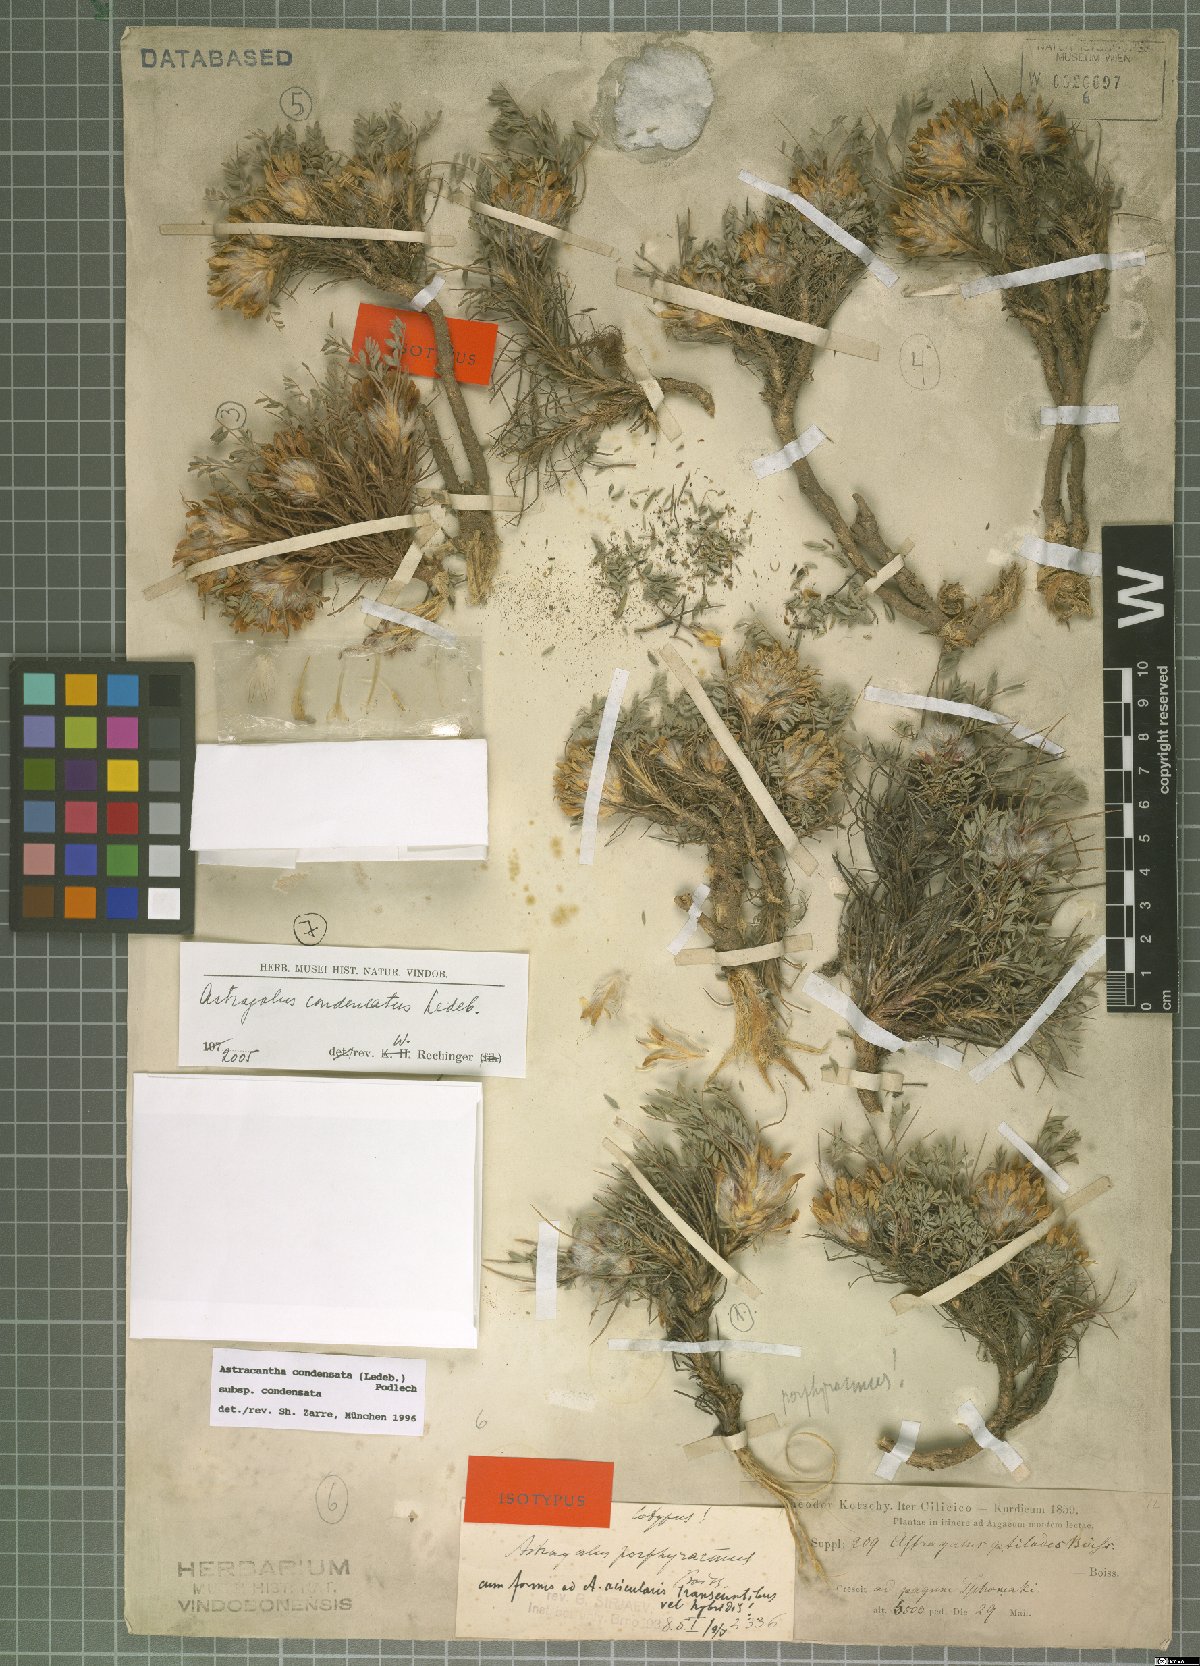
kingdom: Plantae
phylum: Tracheophyta
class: Magnoliopsida
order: Fabales
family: Fabaceae
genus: Astragalus
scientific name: Astragalus condensatus
